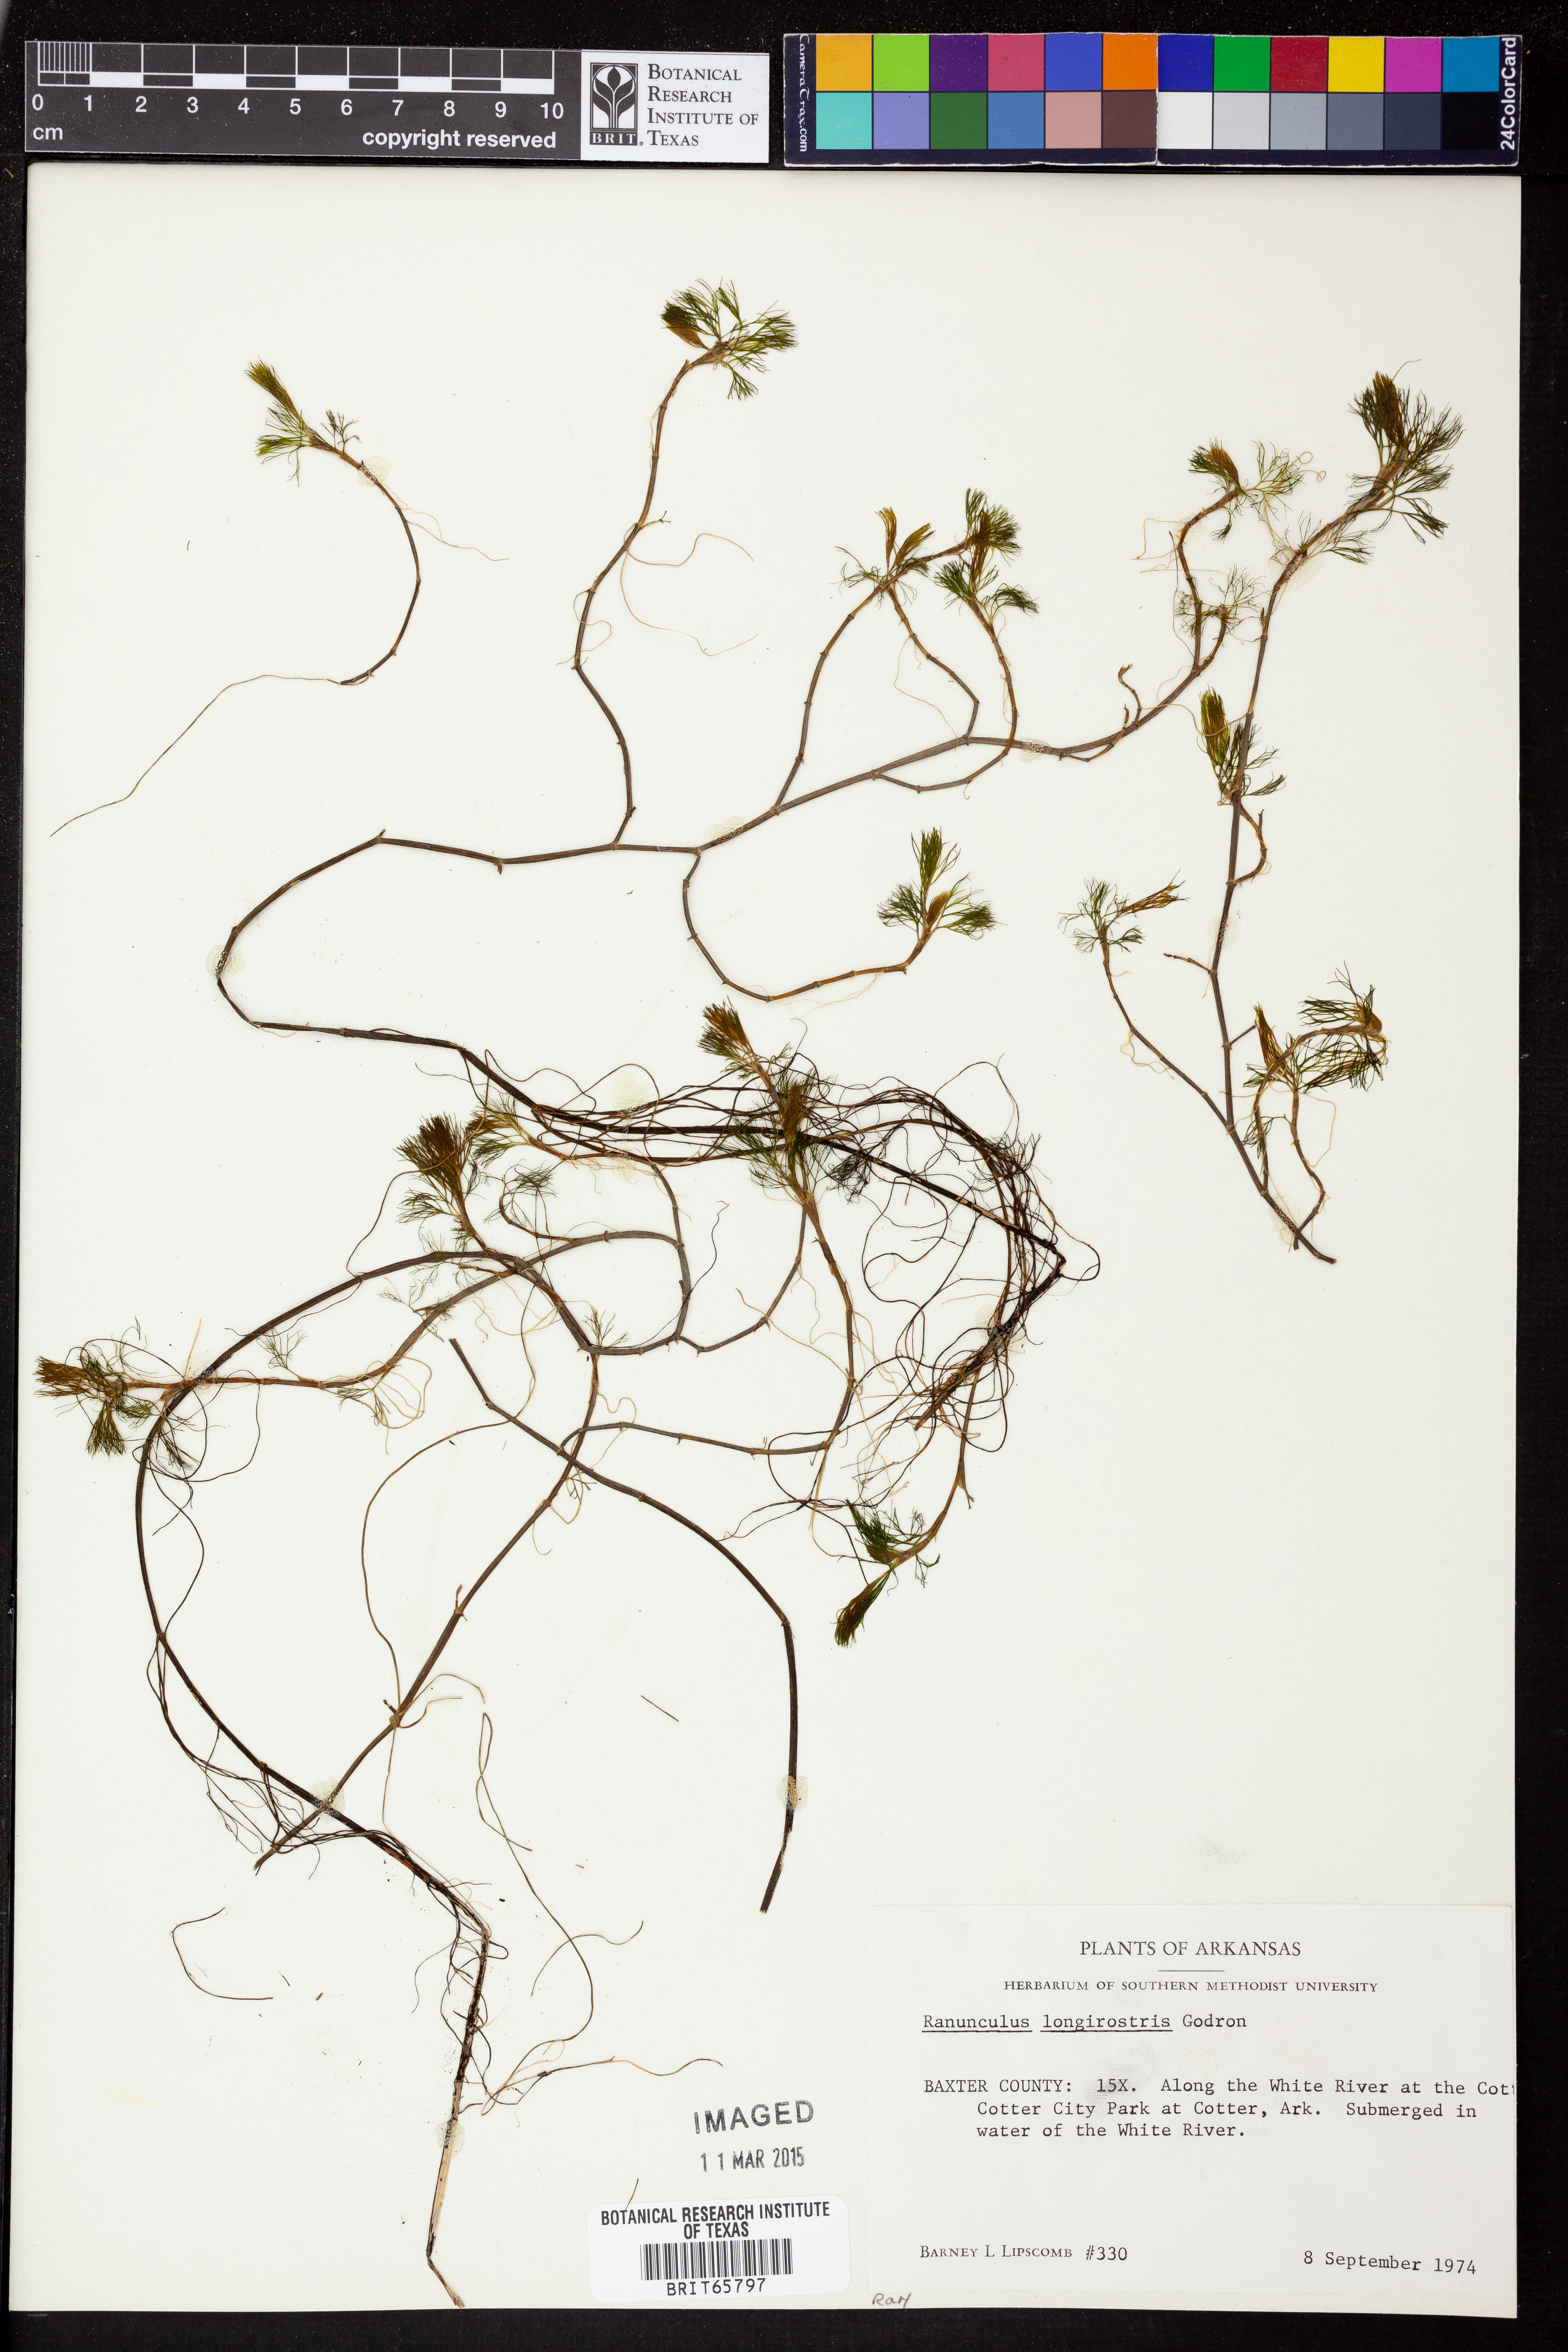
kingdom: Plantae
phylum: Tracheophyta
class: Magnoliopsida
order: Ranunculales
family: Ranunculaceae
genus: Ranunculus
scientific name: Ranunculus longirostris
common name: Curly white water-crowfoot
